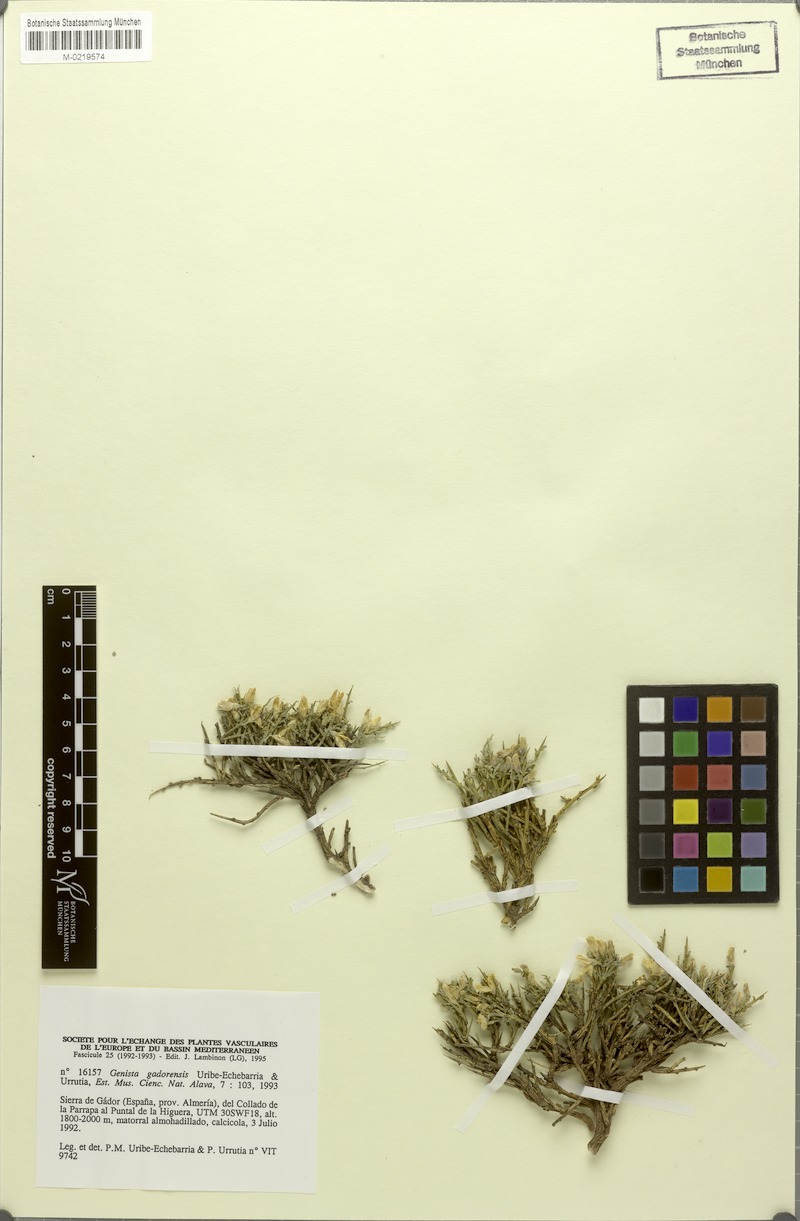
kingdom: Plantae
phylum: Tracheophyta
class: Magnoliopsida
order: Fabales
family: Fabaceae
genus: Genista
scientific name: Genista longipes
